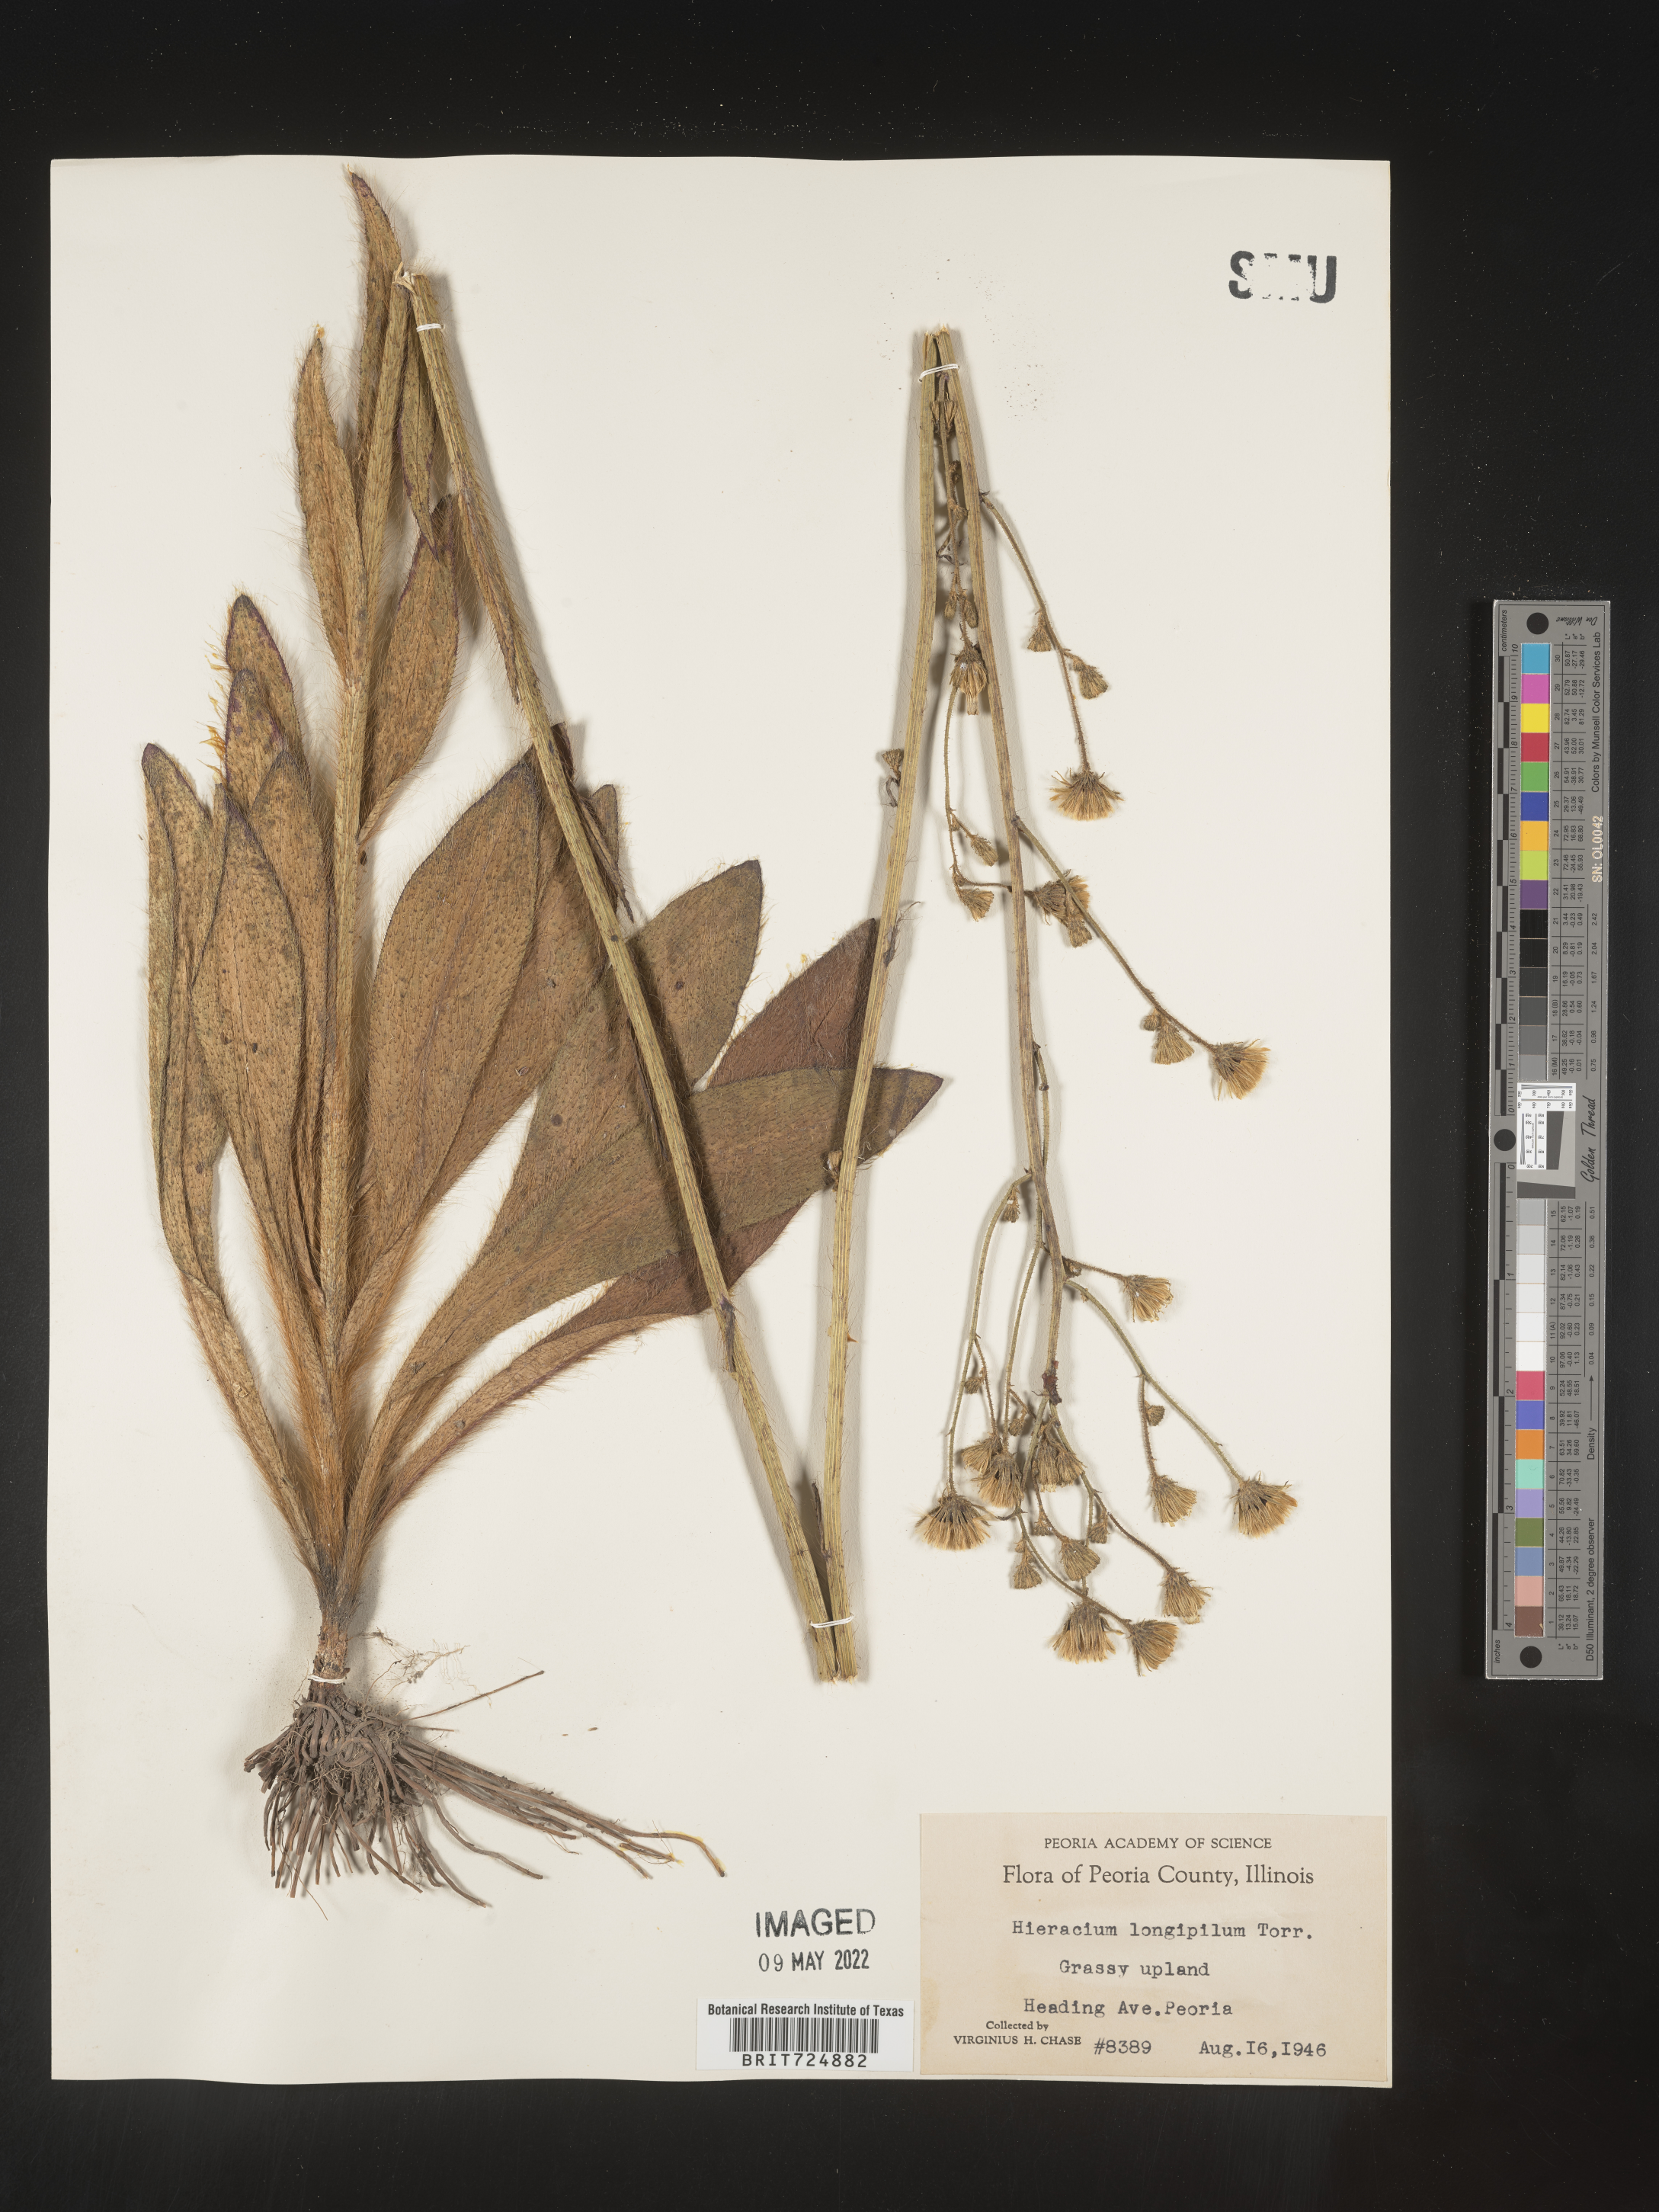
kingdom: Plantae
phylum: Tracheophyta
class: Magnoliopsida
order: Asterales
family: Asteraceae
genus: Hieracium
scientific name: Hieracium longipilum
